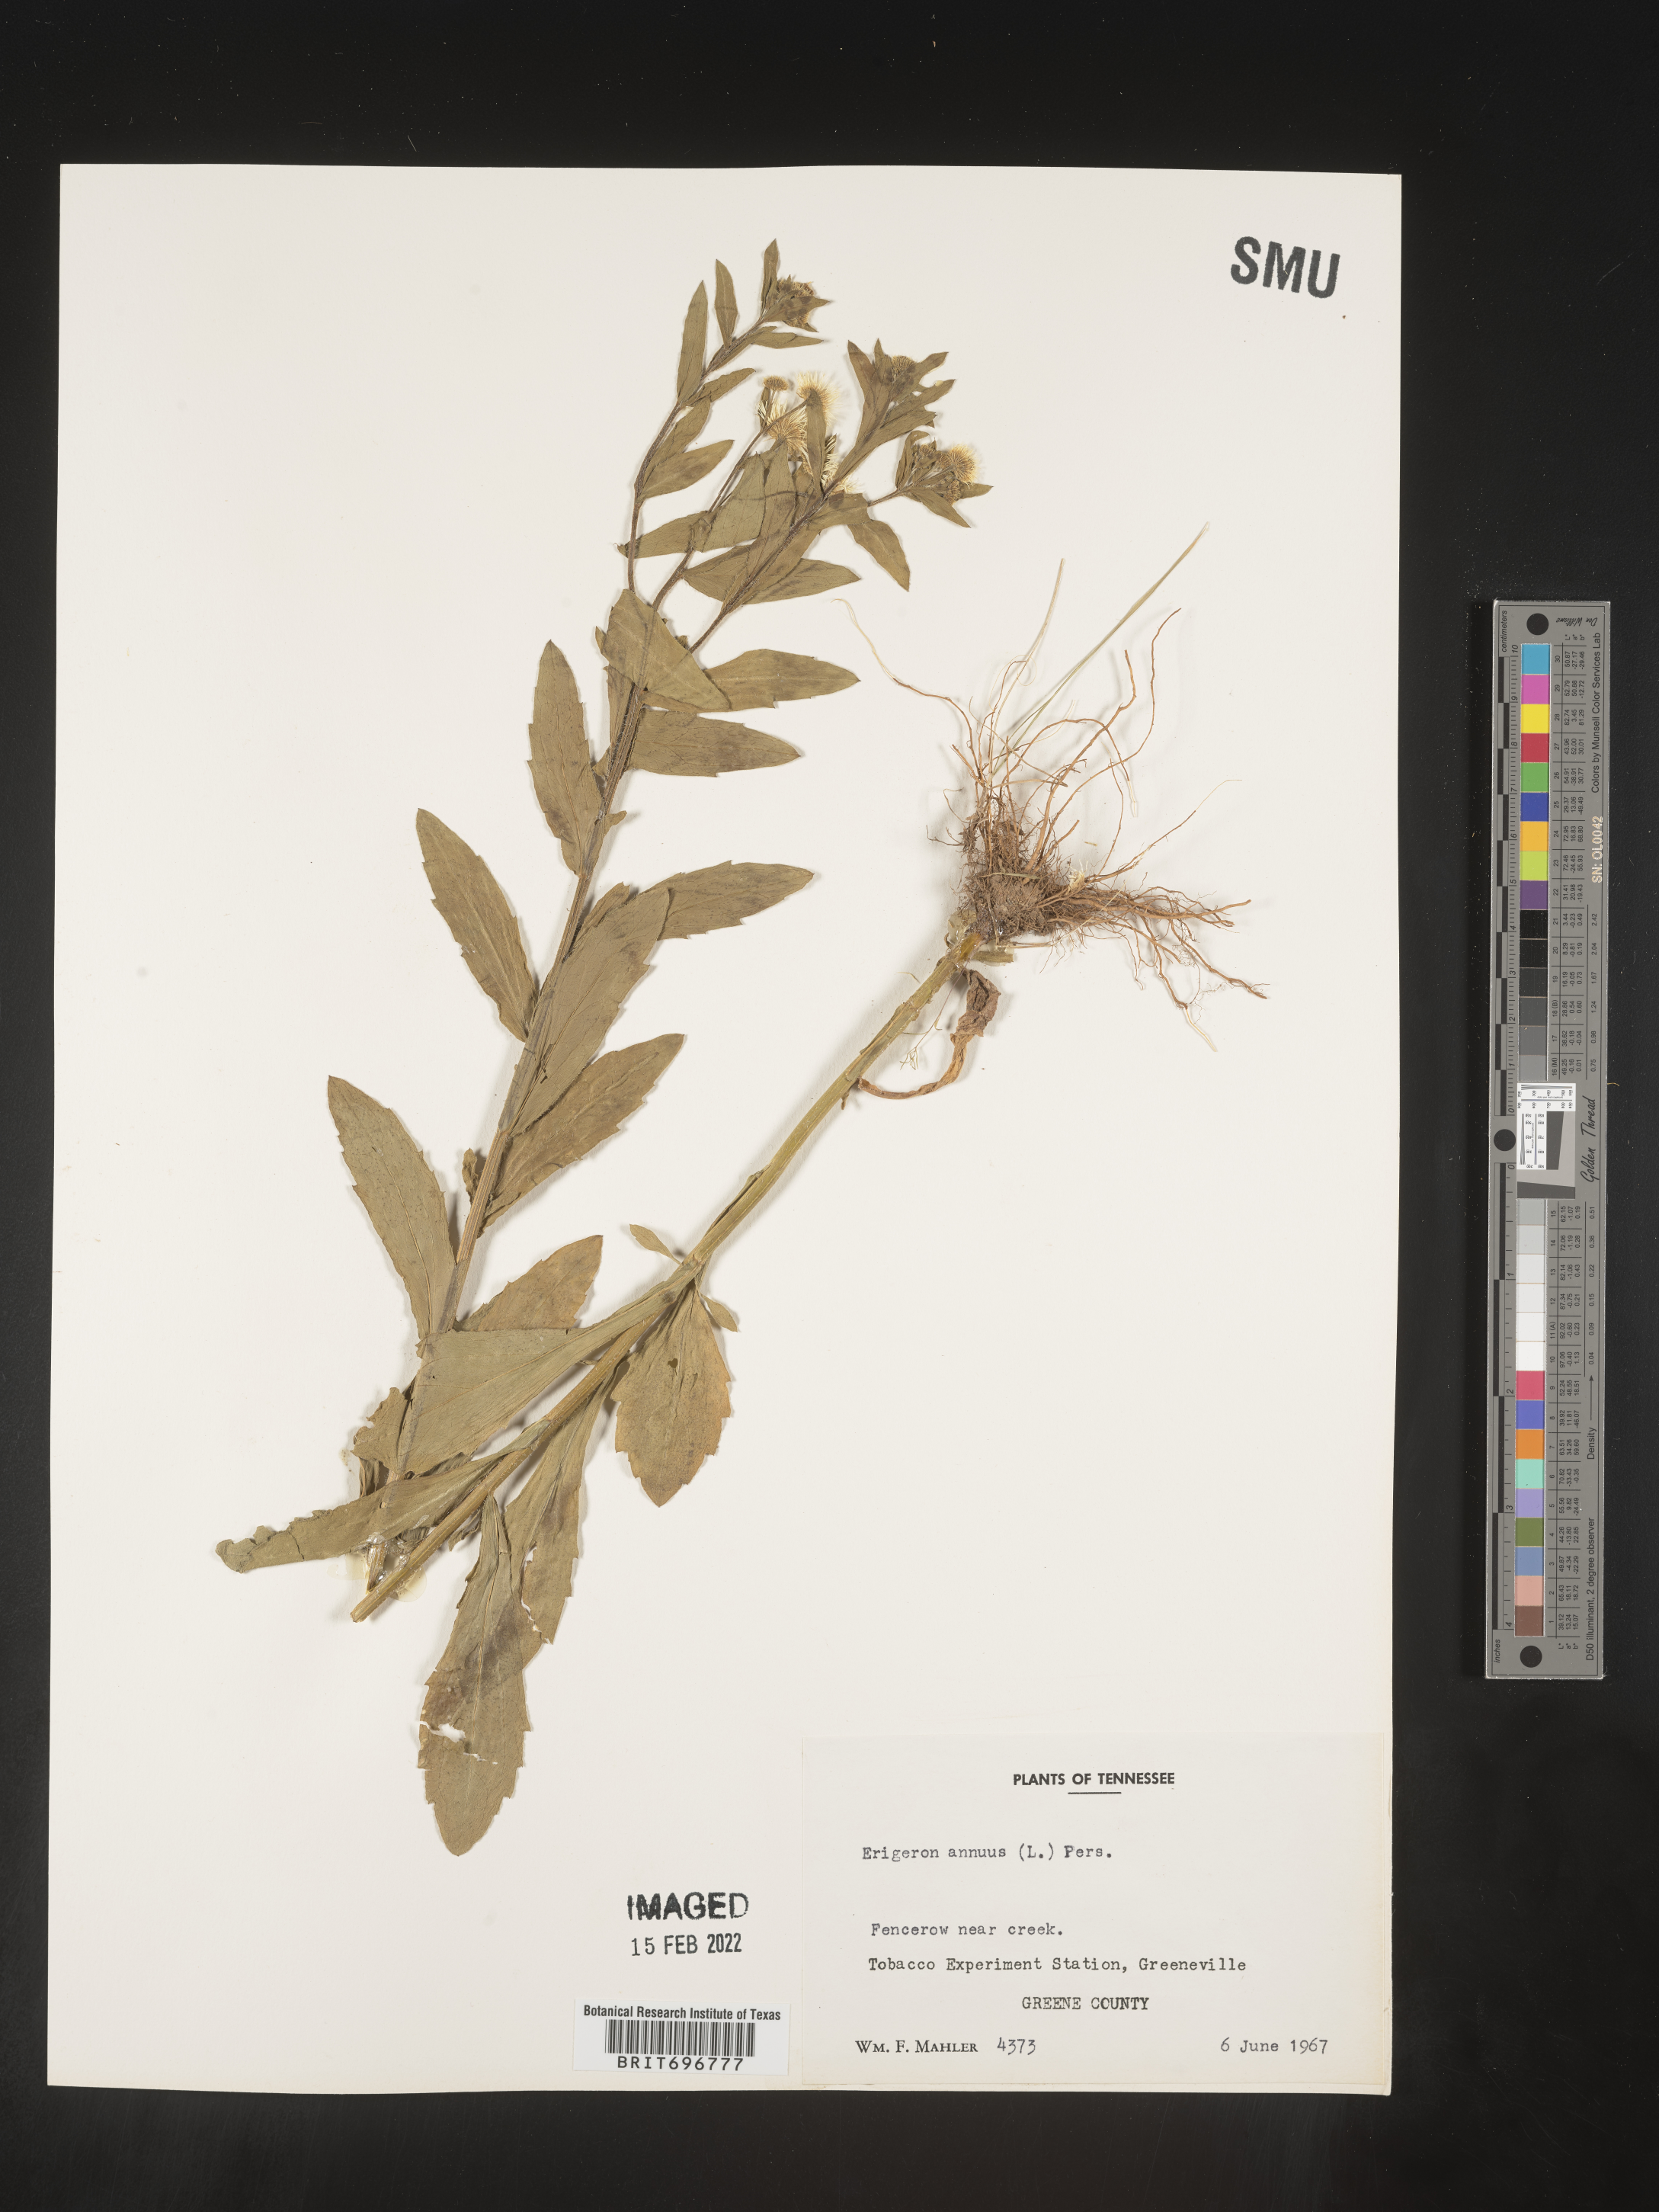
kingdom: Plantae
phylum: Tracheophyta
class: Magnoliopsida
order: Asterales
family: Asteraceae
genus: Erigeron
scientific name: Erigeron annuus
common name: Tall fleabane
